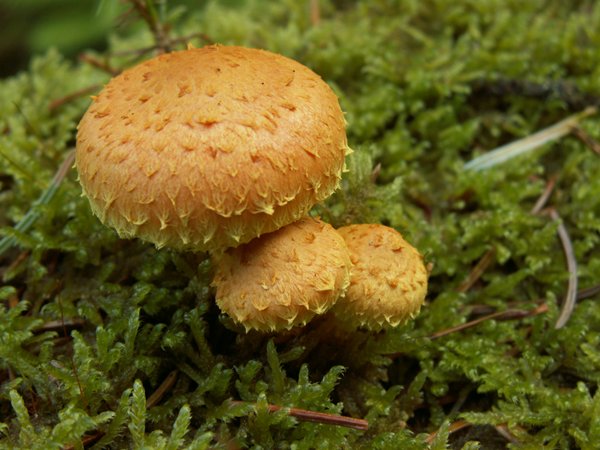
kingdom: Fungi
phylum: Basidiomycota
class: Agaricomycetes
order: Agaricales
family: Strophariaceae
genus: Pholiota
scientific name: Pholiota flammans
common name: flamme-skælhat
